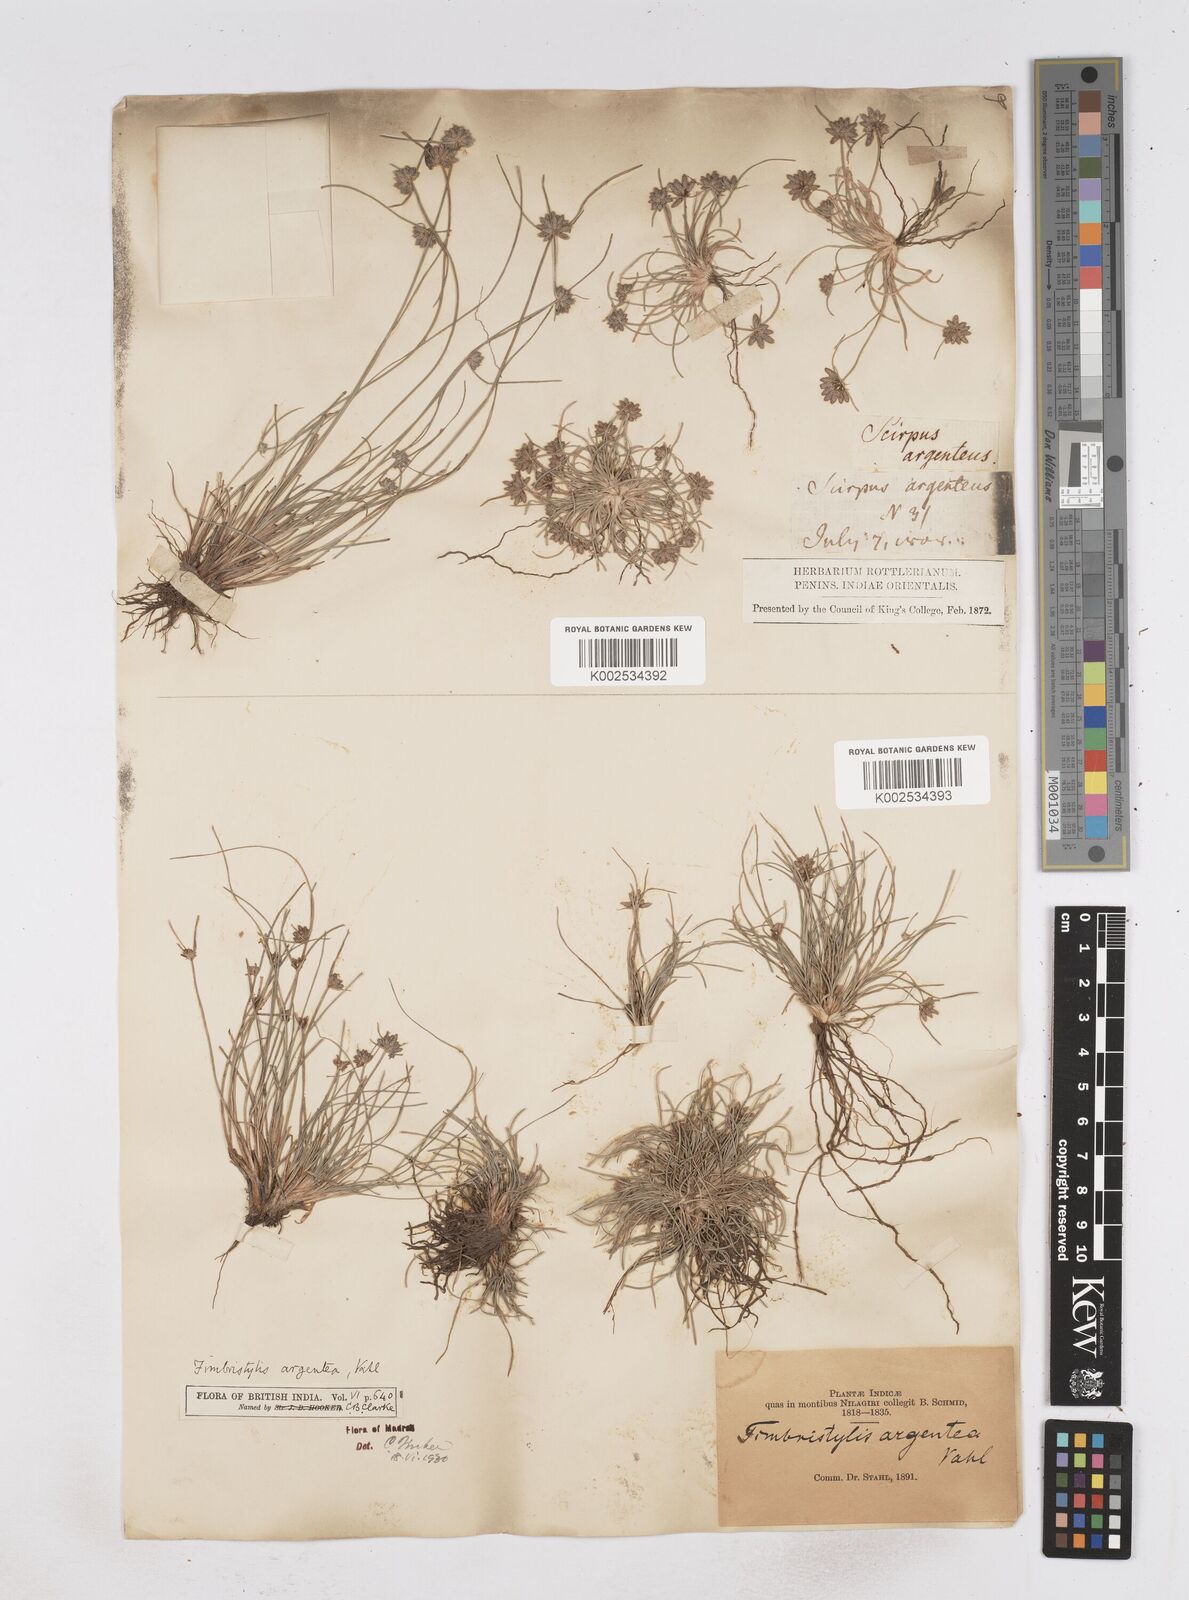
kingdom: Plantae
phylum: Tracheophyta
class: Liliopsida
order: Poales
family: Cyperaceae
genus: Fimbristylis
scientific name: Fimbristylis argentea
